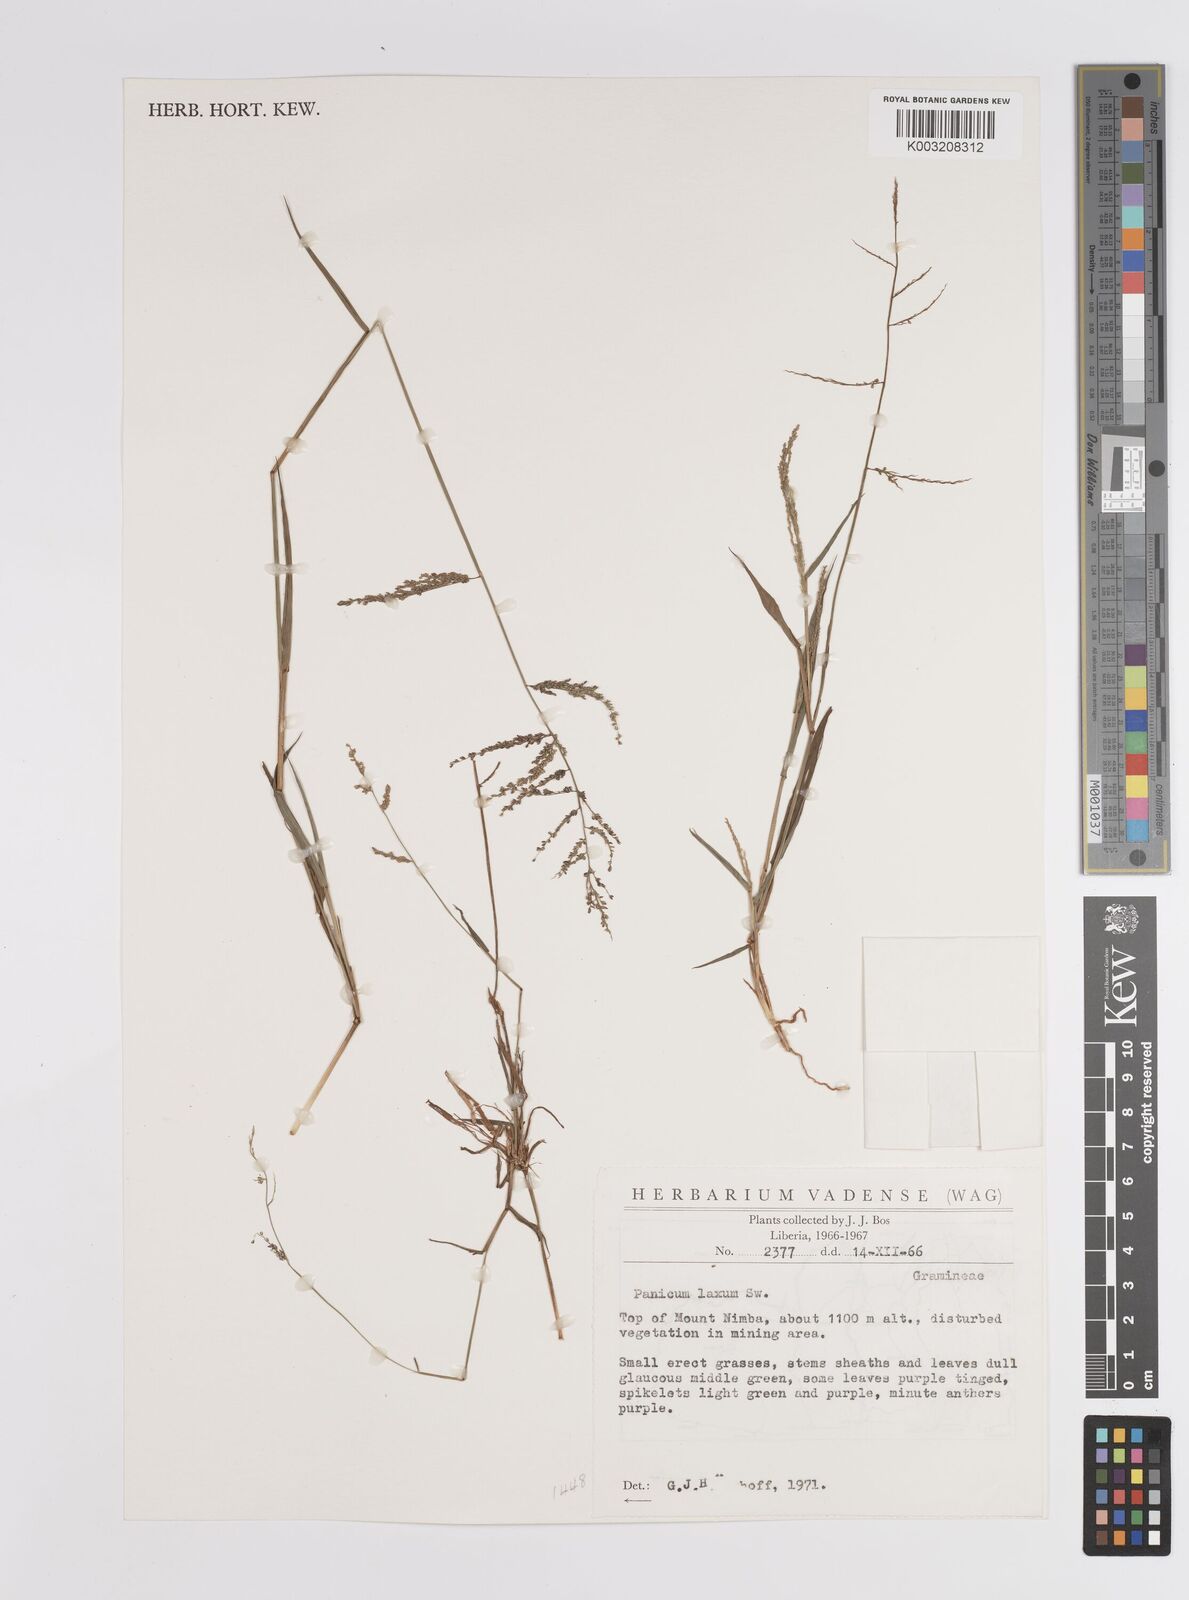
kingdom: Plantae
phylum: Tracheophyta
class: Liliopsida
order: Poales
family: Poaceae
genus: Steinchisma
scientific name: Steinchisma laxum
